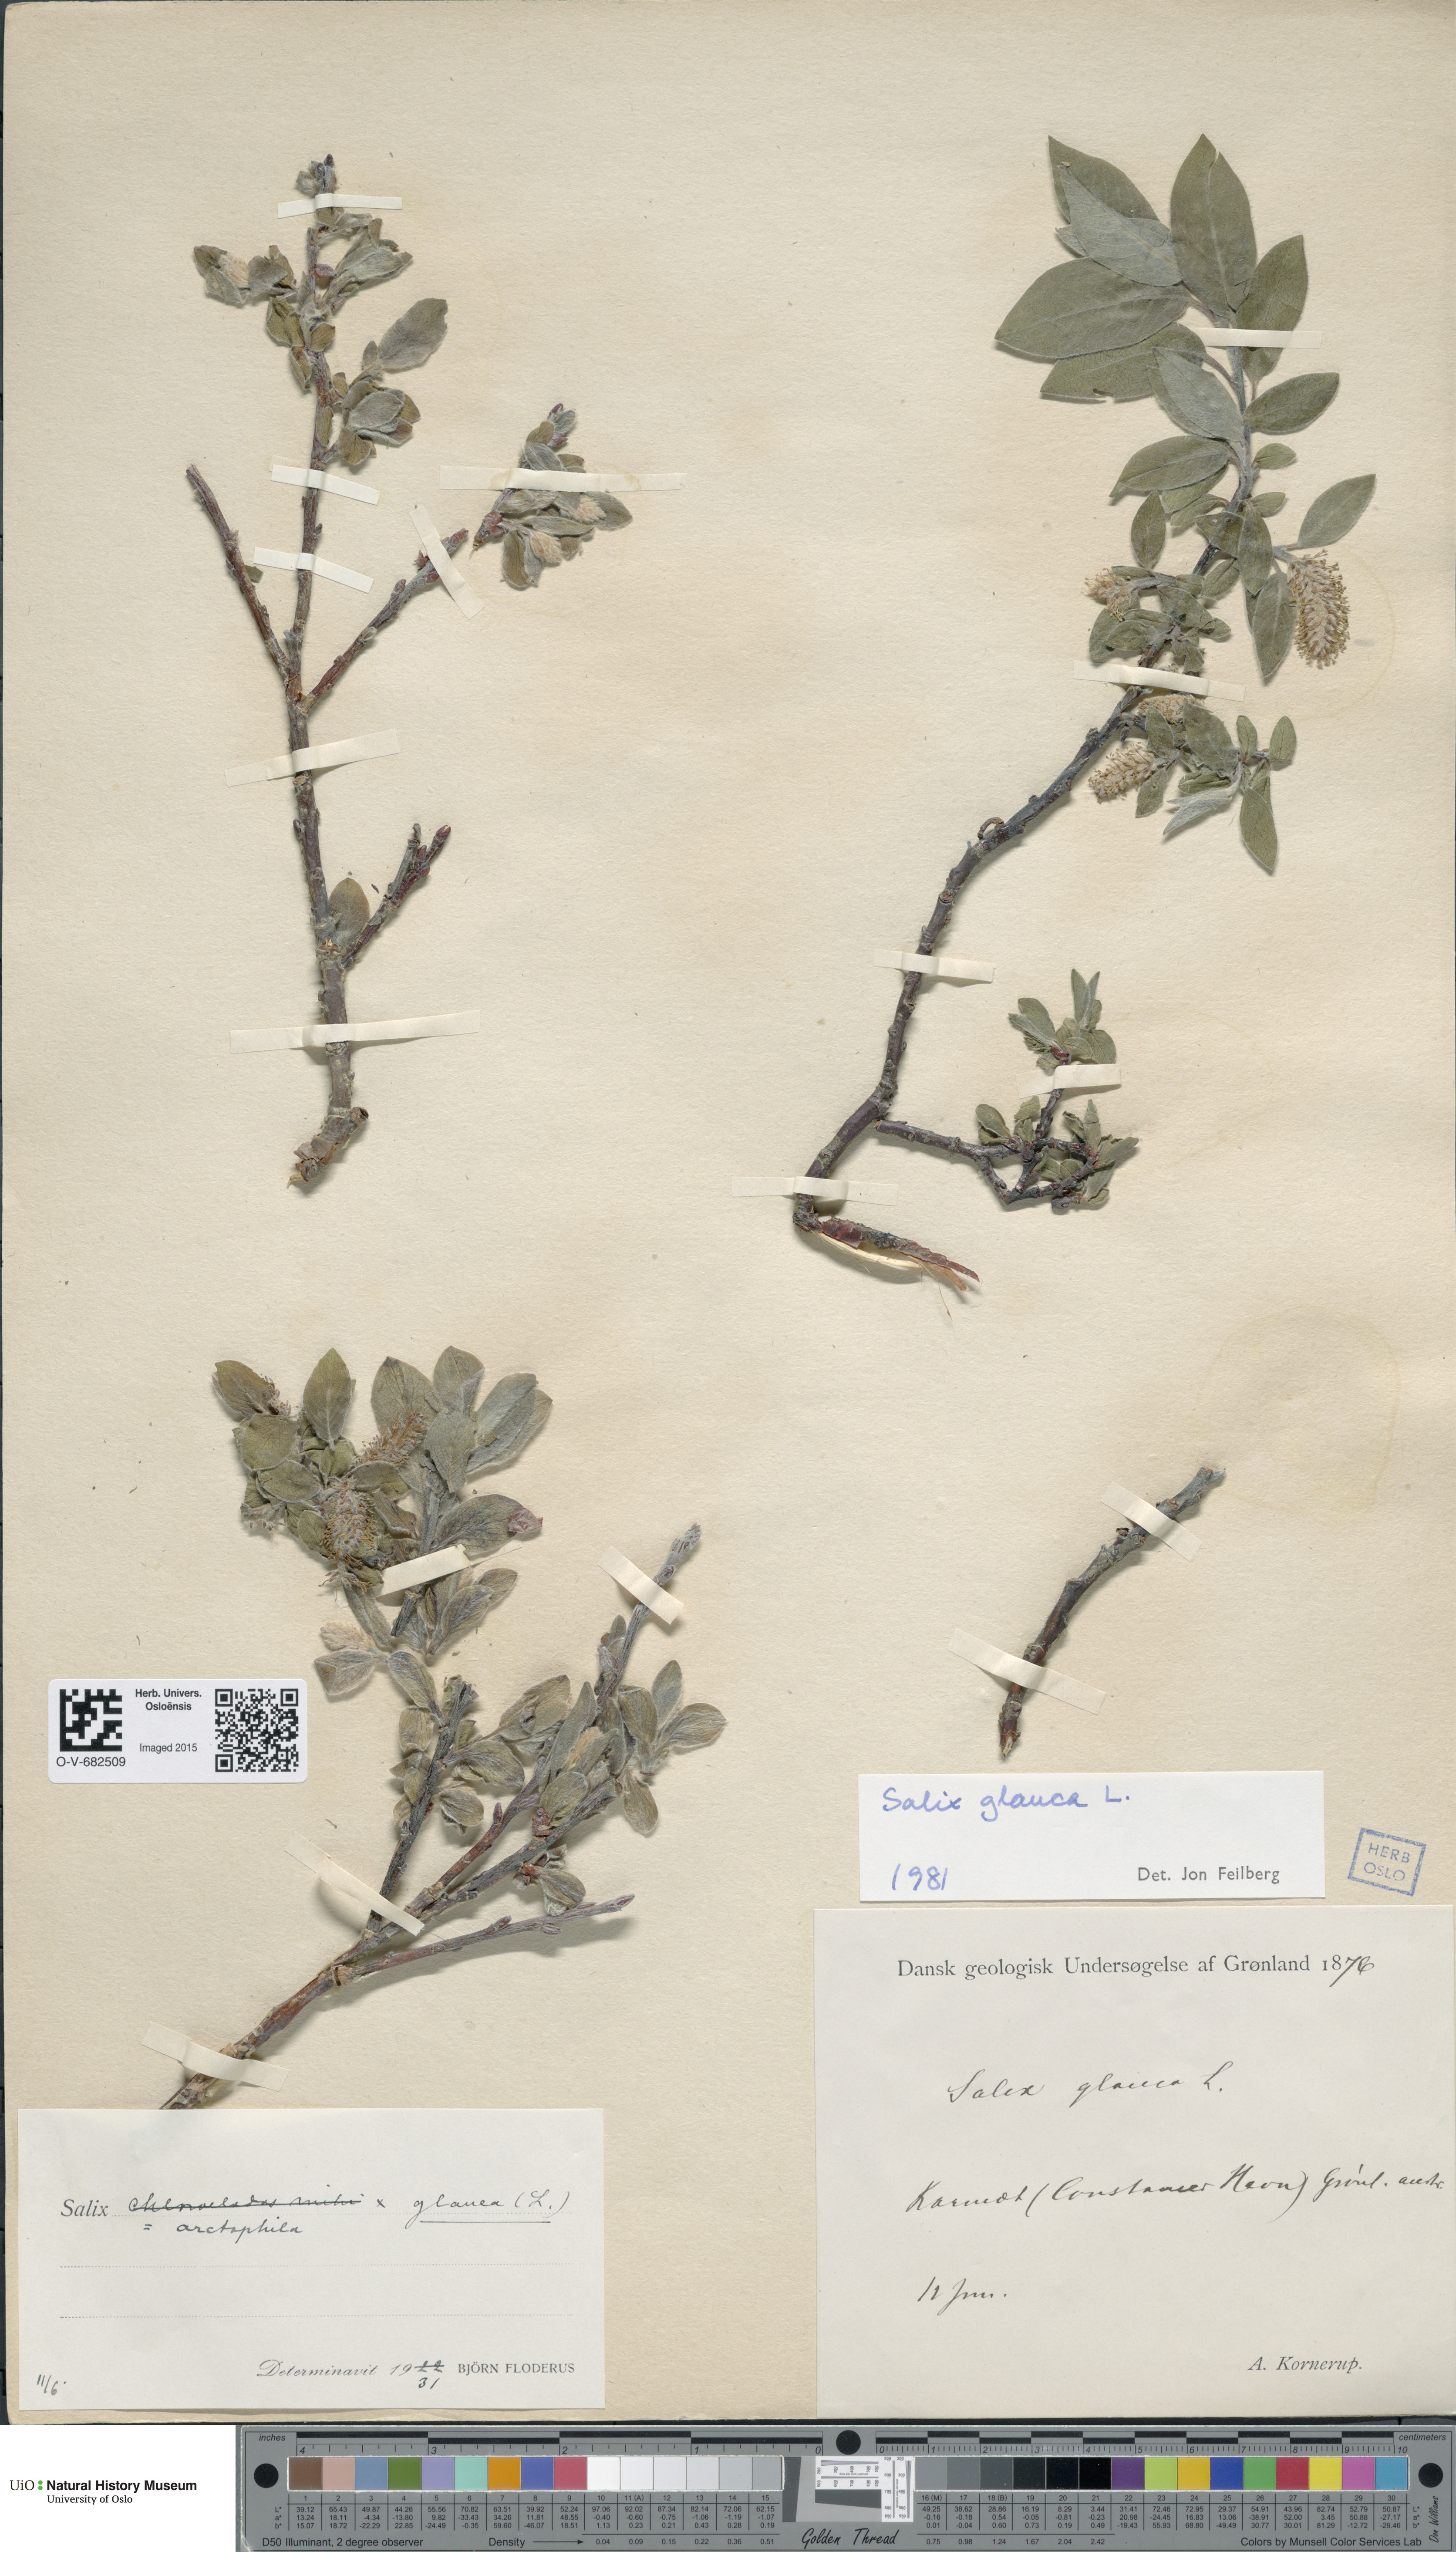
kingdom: Plantae
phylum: Tracheophyta
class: Magnoliopsida
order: Malpighiales
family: Salicaceae
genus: Salix
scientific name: Salix glauca
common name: Glaucous willow
